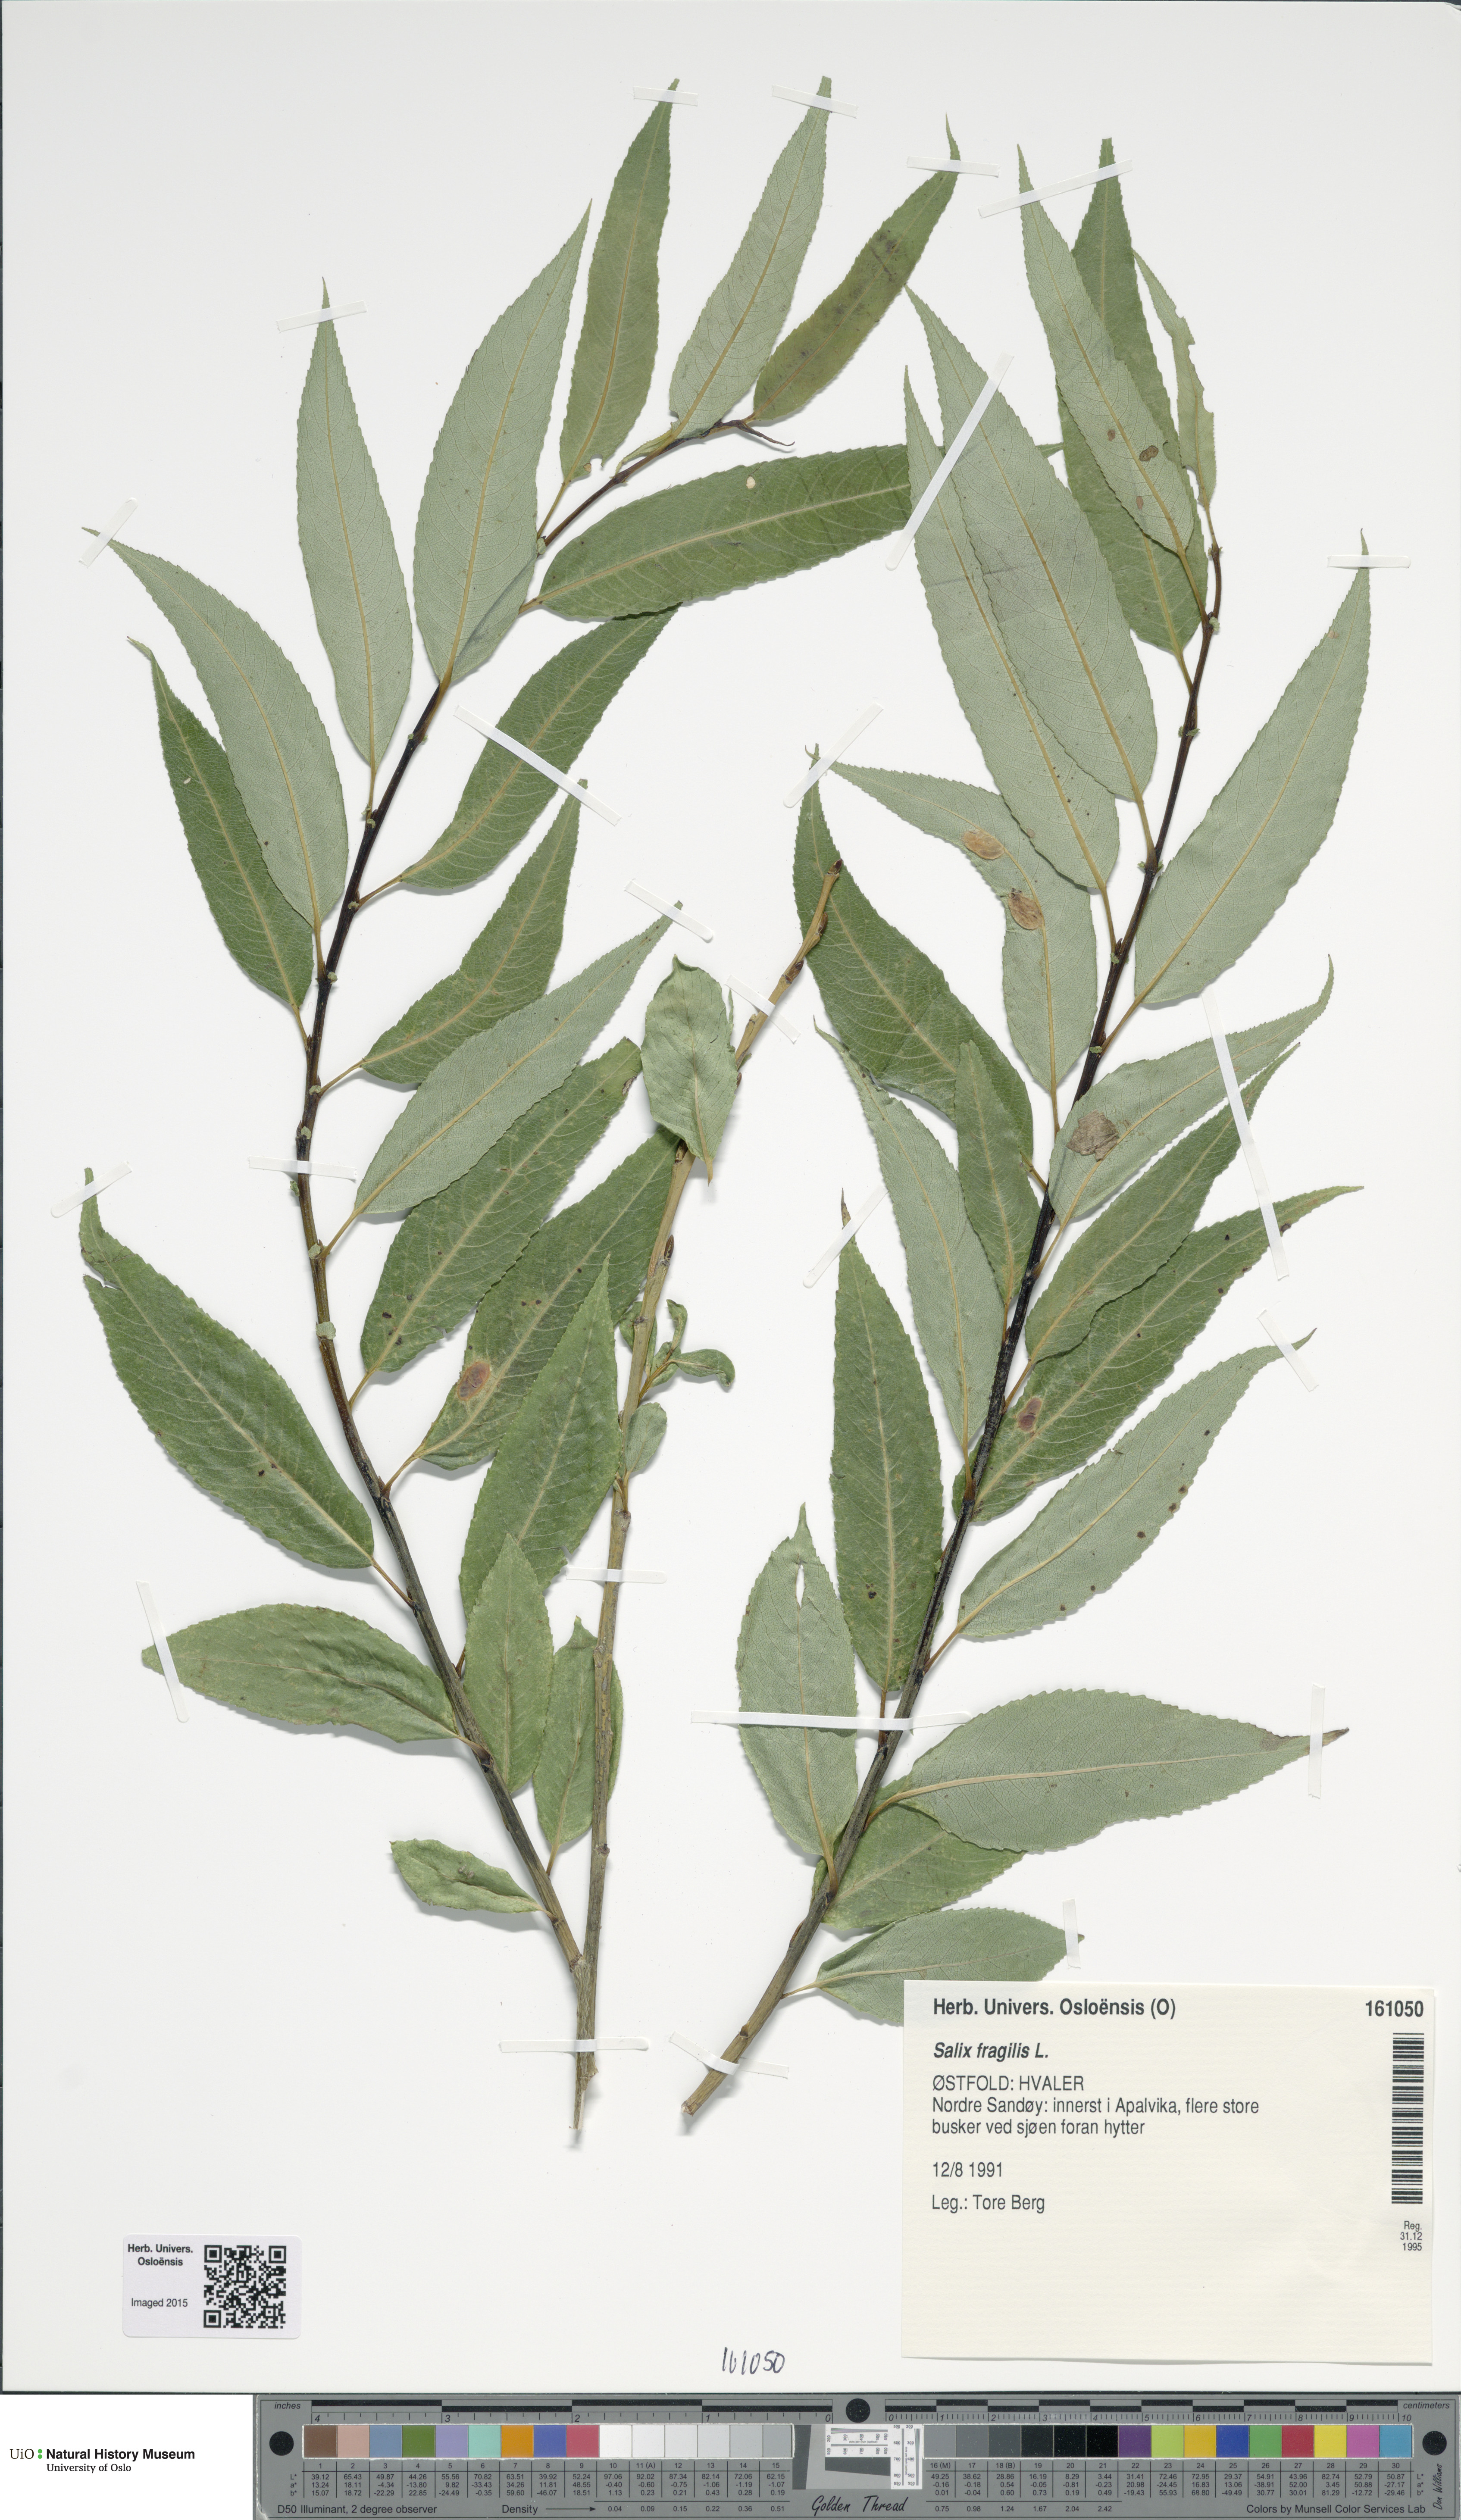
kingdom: Plantae
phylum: Tracheophyta
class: Magnoliopsida
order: Malpighiales
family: Salicaceae
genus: Salix
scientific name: Salix alba
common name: White willow
